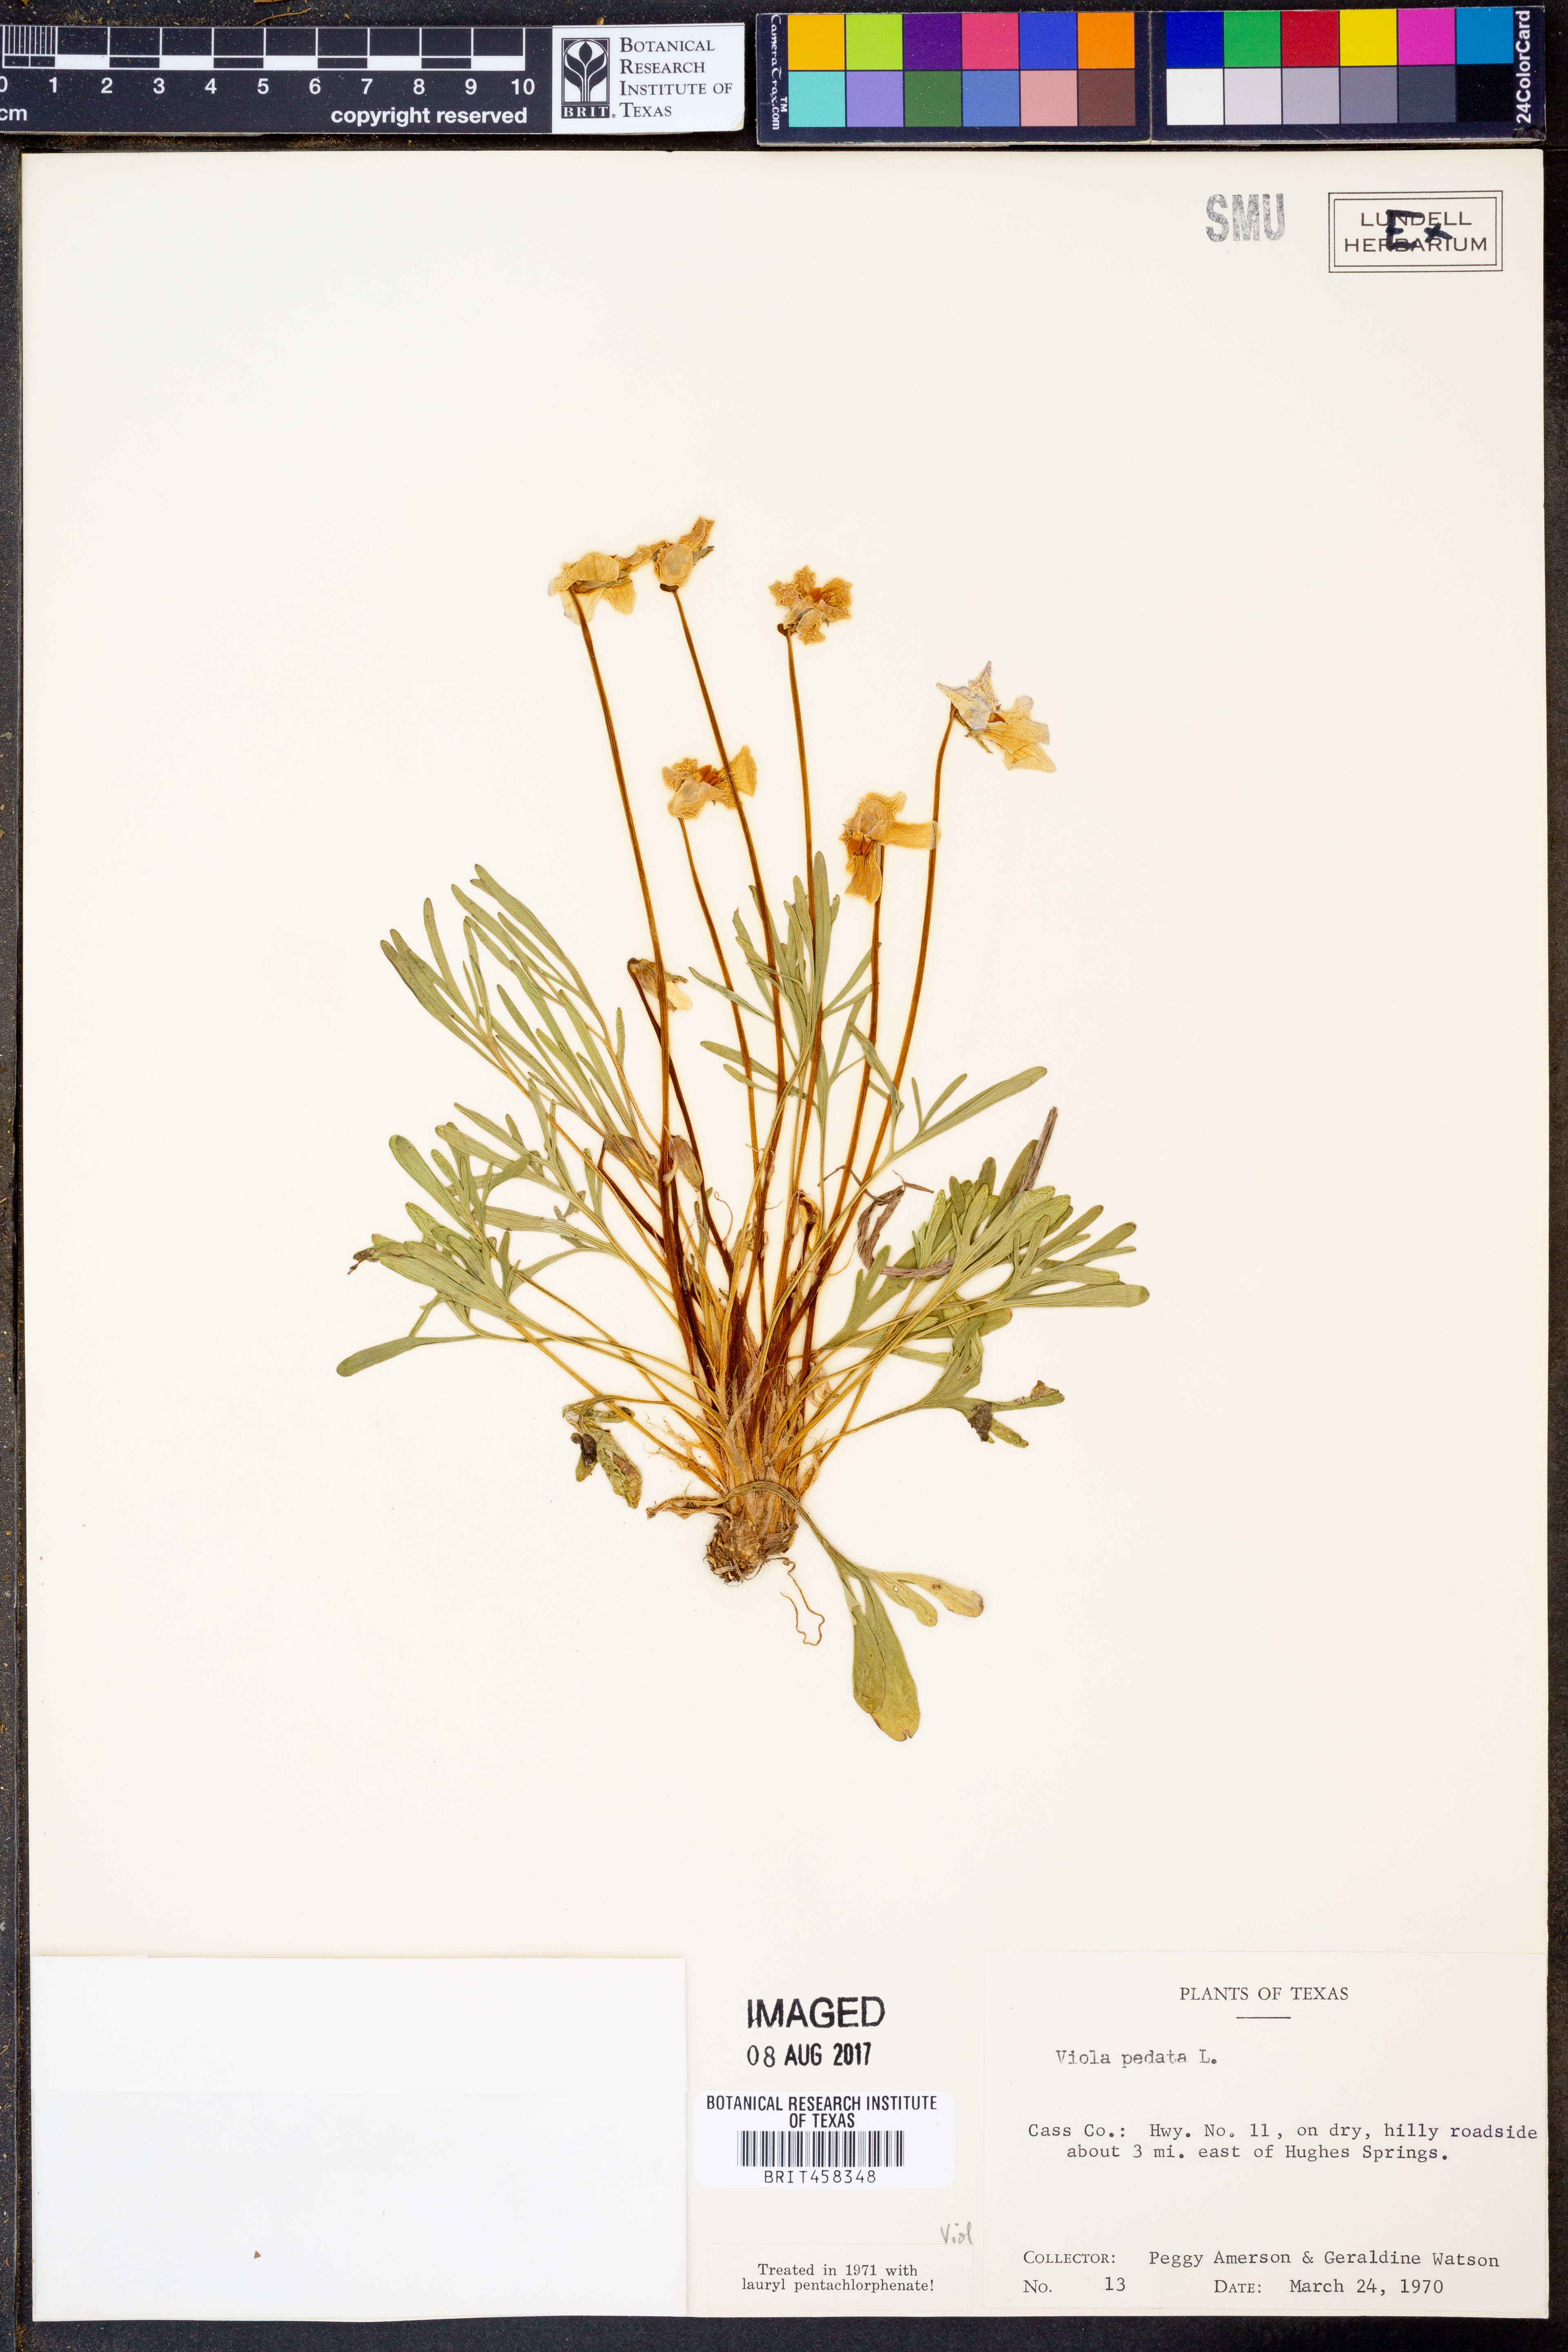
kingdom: Plantae
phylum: Tracheophyta
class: Magnoliopsida
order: Malpighiales
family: Violaceae
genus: Viola
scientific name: Viola pedata
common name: Pansy violet
